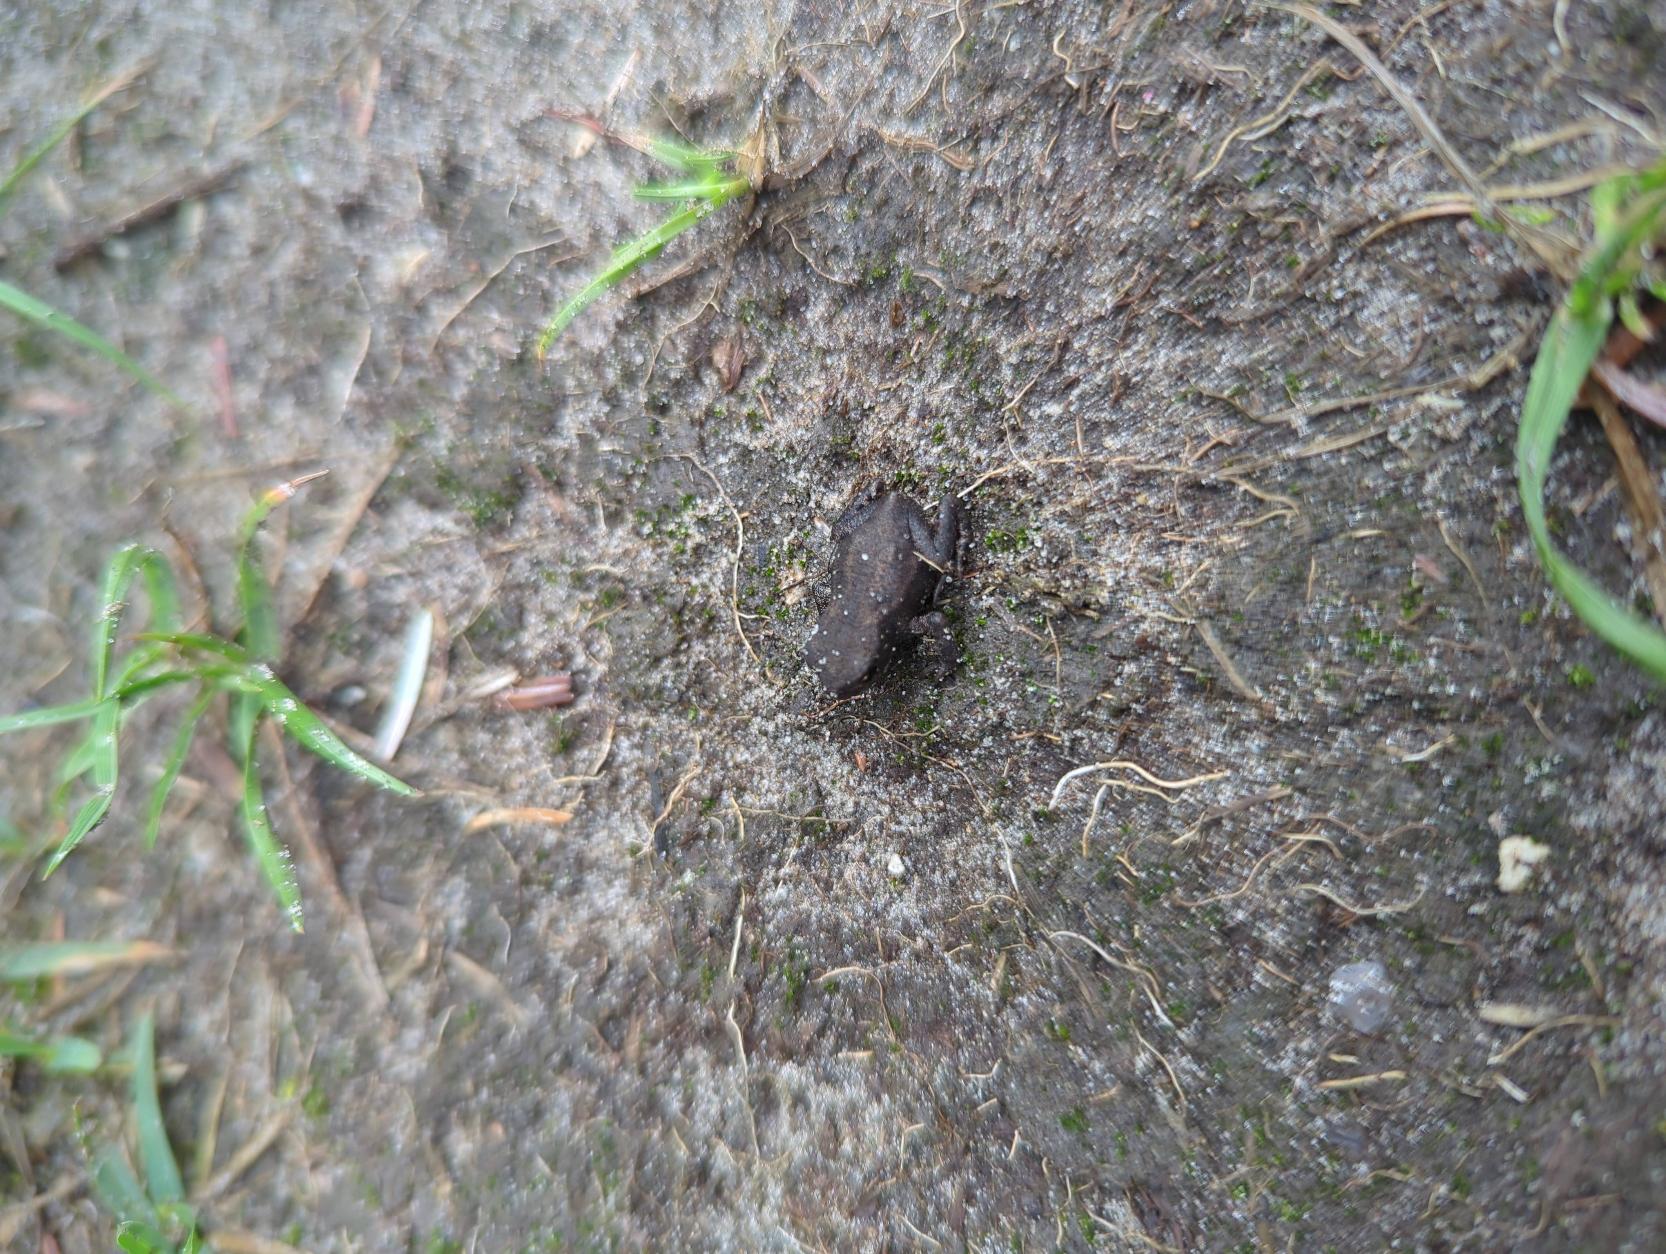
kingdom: Animalia
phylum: Chordata
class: Amphibia
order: Anura
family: Bufonidae
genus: Bufo
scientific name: Bufo bufo
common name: Skrubtudse
